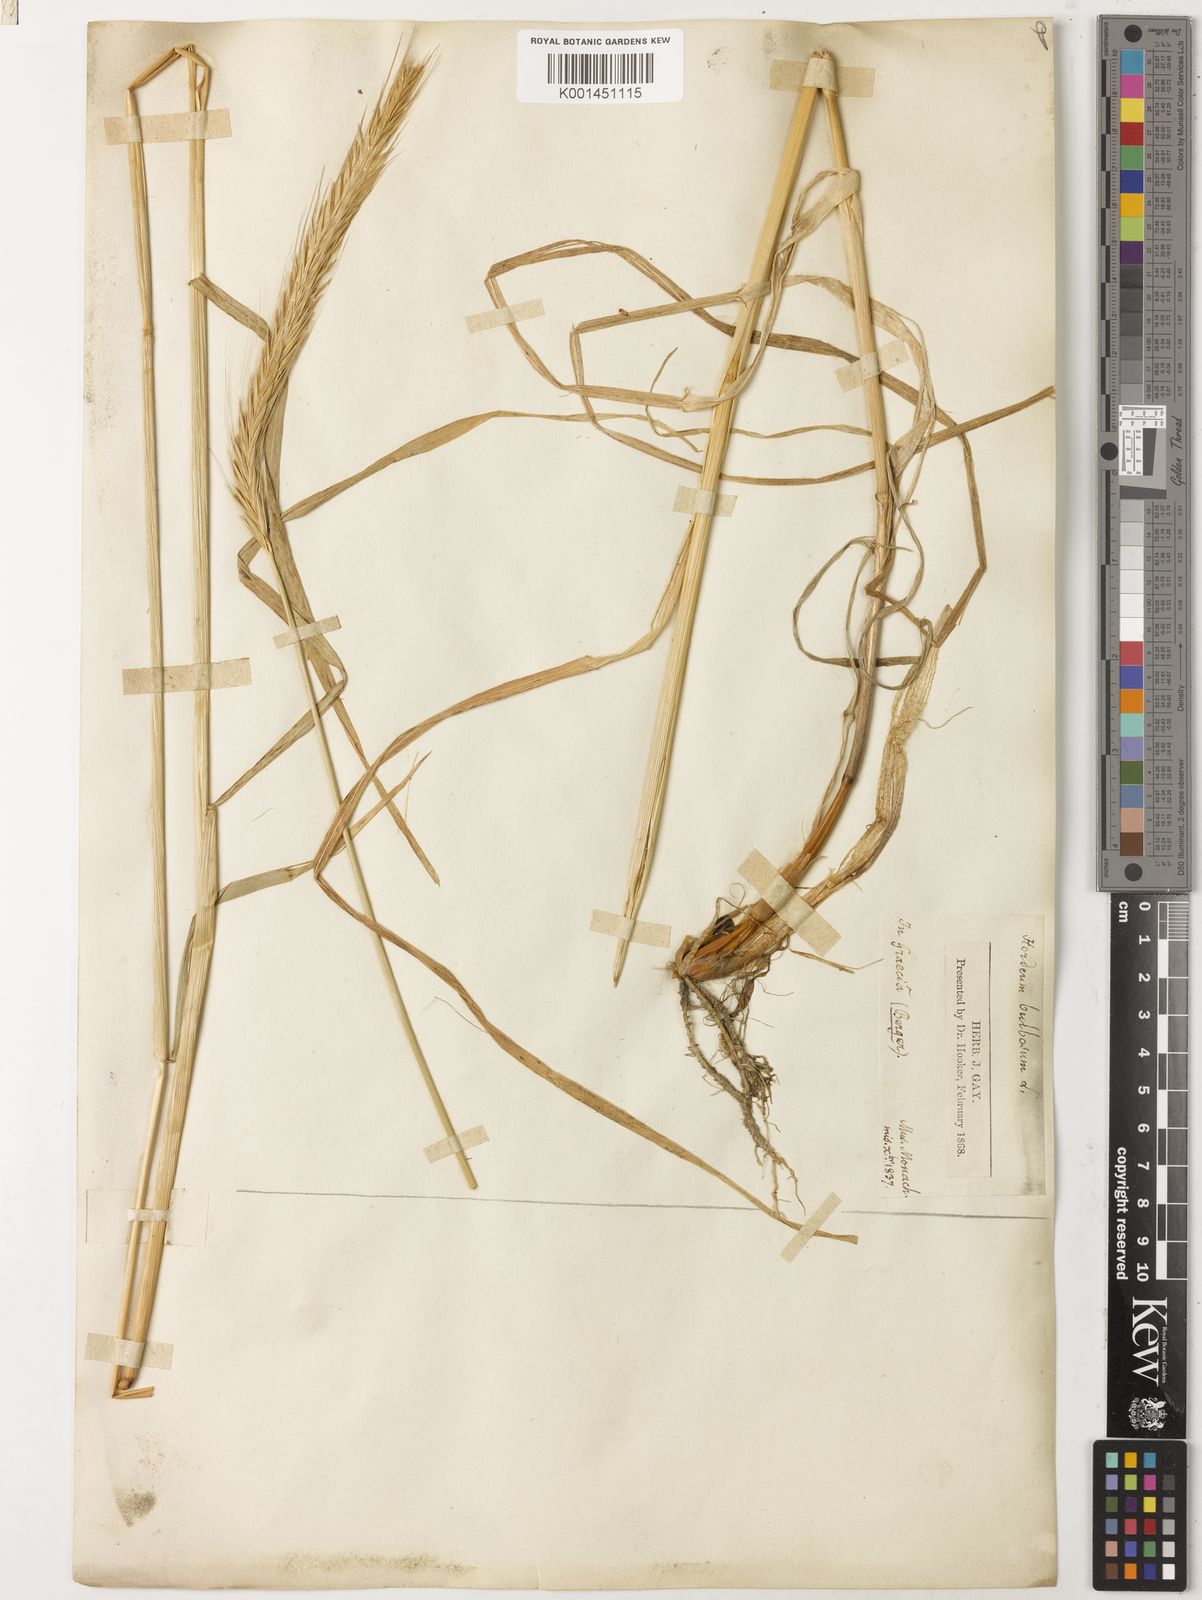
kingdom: Plantae
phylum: Tracheophyta
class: Liliopsida
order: Poales
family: Poaceae
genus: Hordeum
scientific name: Hordeum bulbosum
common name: Bulbous barley
